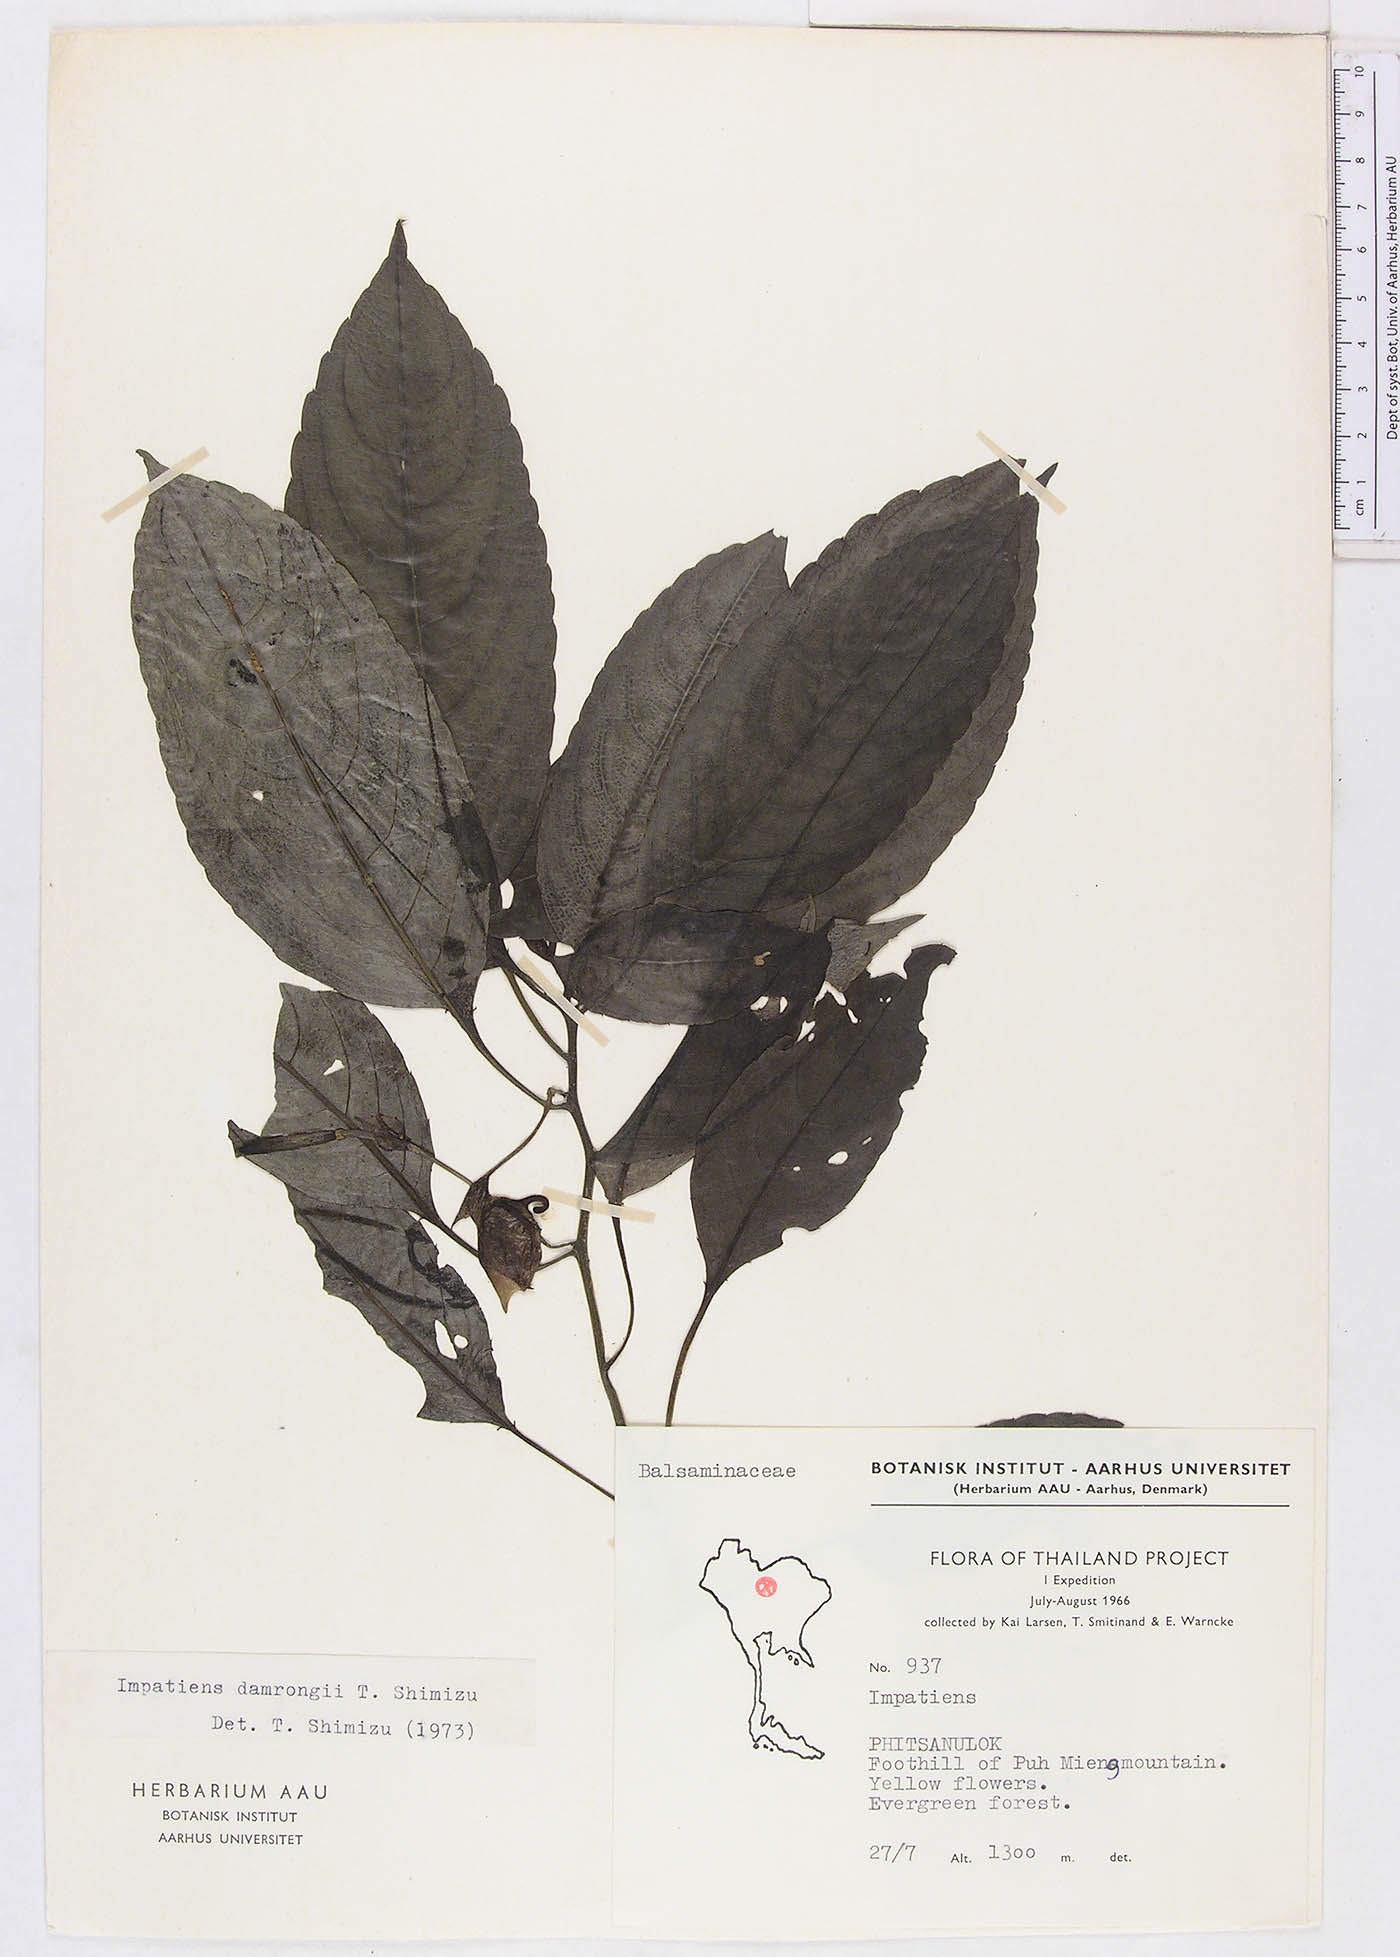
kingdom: Plantae
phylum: Tracheophyta
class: Magnoliopsida
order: Ericales
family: Balsaminaceae
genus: Impatiens
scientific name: Impatiens damrongii
